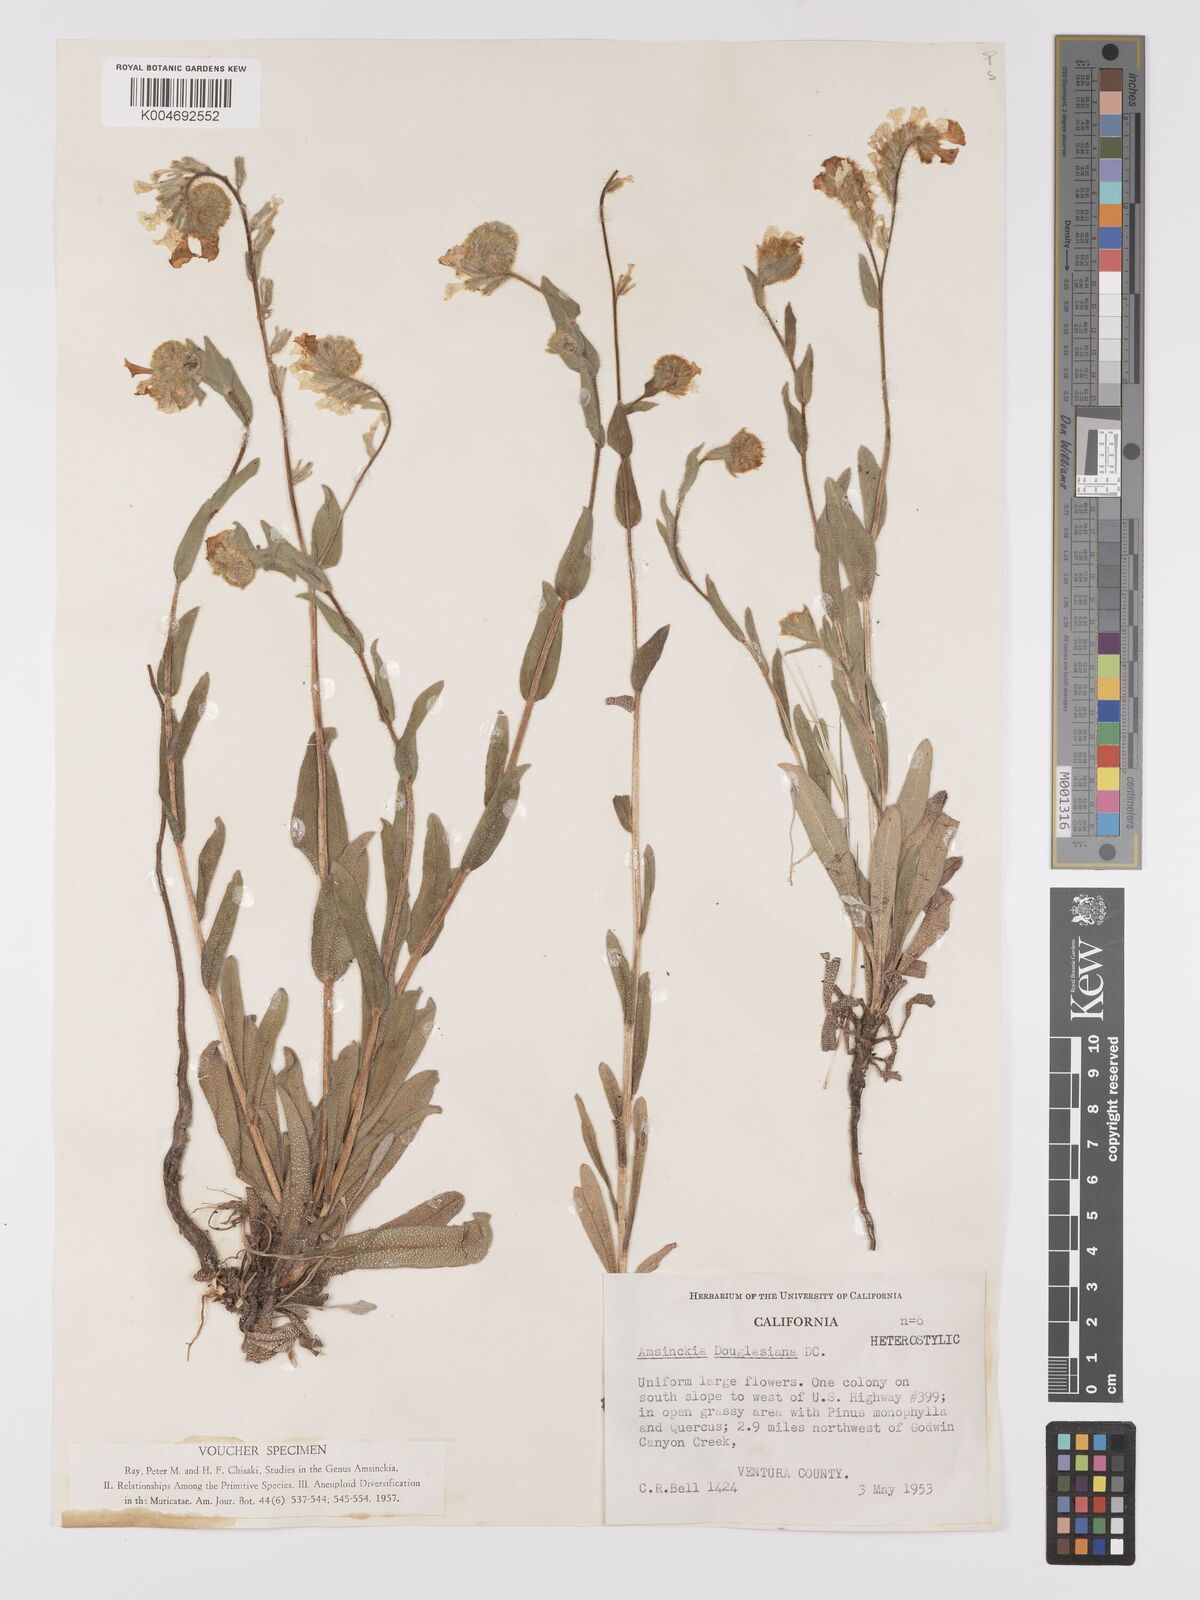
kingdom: Plantae
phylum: Tracheophyta
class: Magnoliopsida
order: Boraginales
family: Boraginaceae
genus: Amsinckia
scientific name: Amsinckia douglasiana
